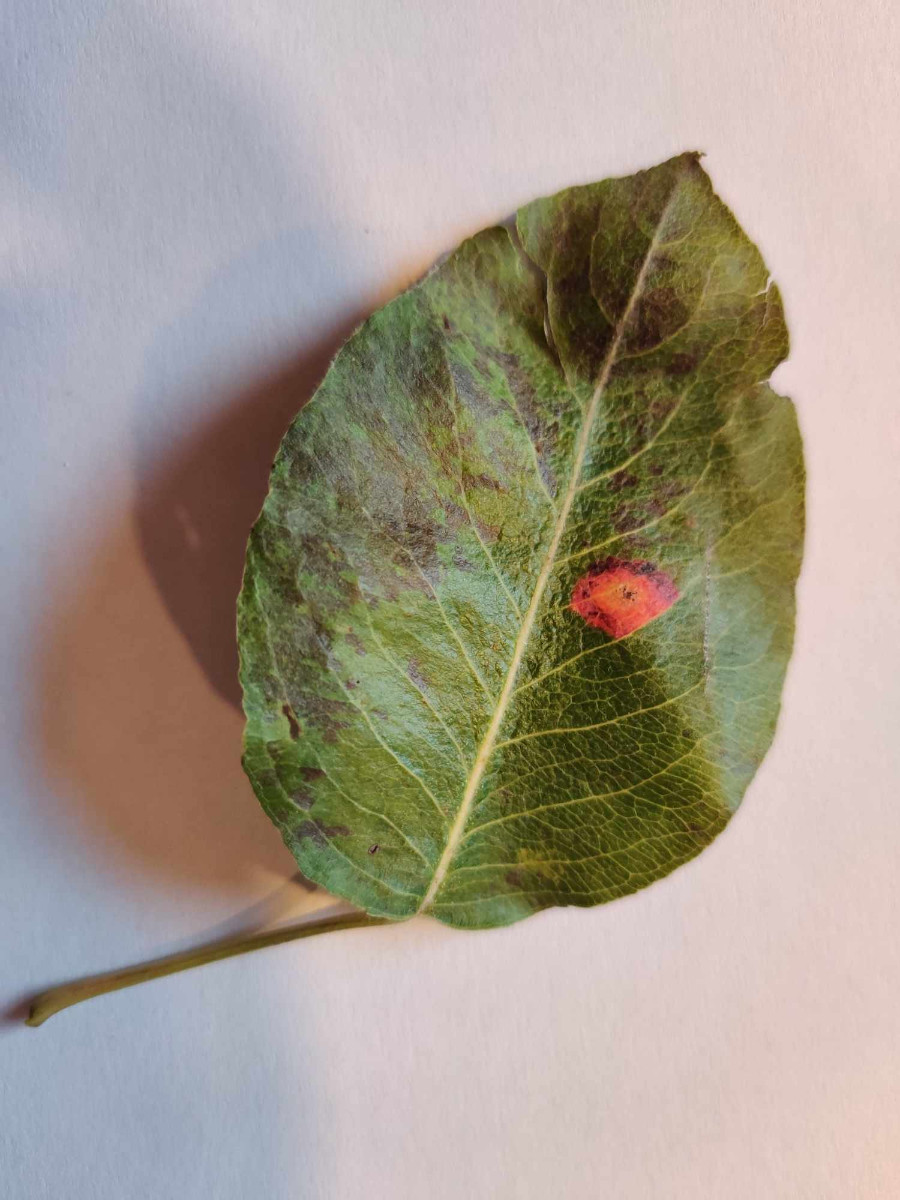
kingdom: Fungi
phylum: Basidiomycota
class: Pucciniomycetes
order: Pucciniales
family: Gymnosporangiaceae
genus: Gymnosporangium
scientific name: Gymnosporangium sabinae
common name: pæregitter-bævrerust
